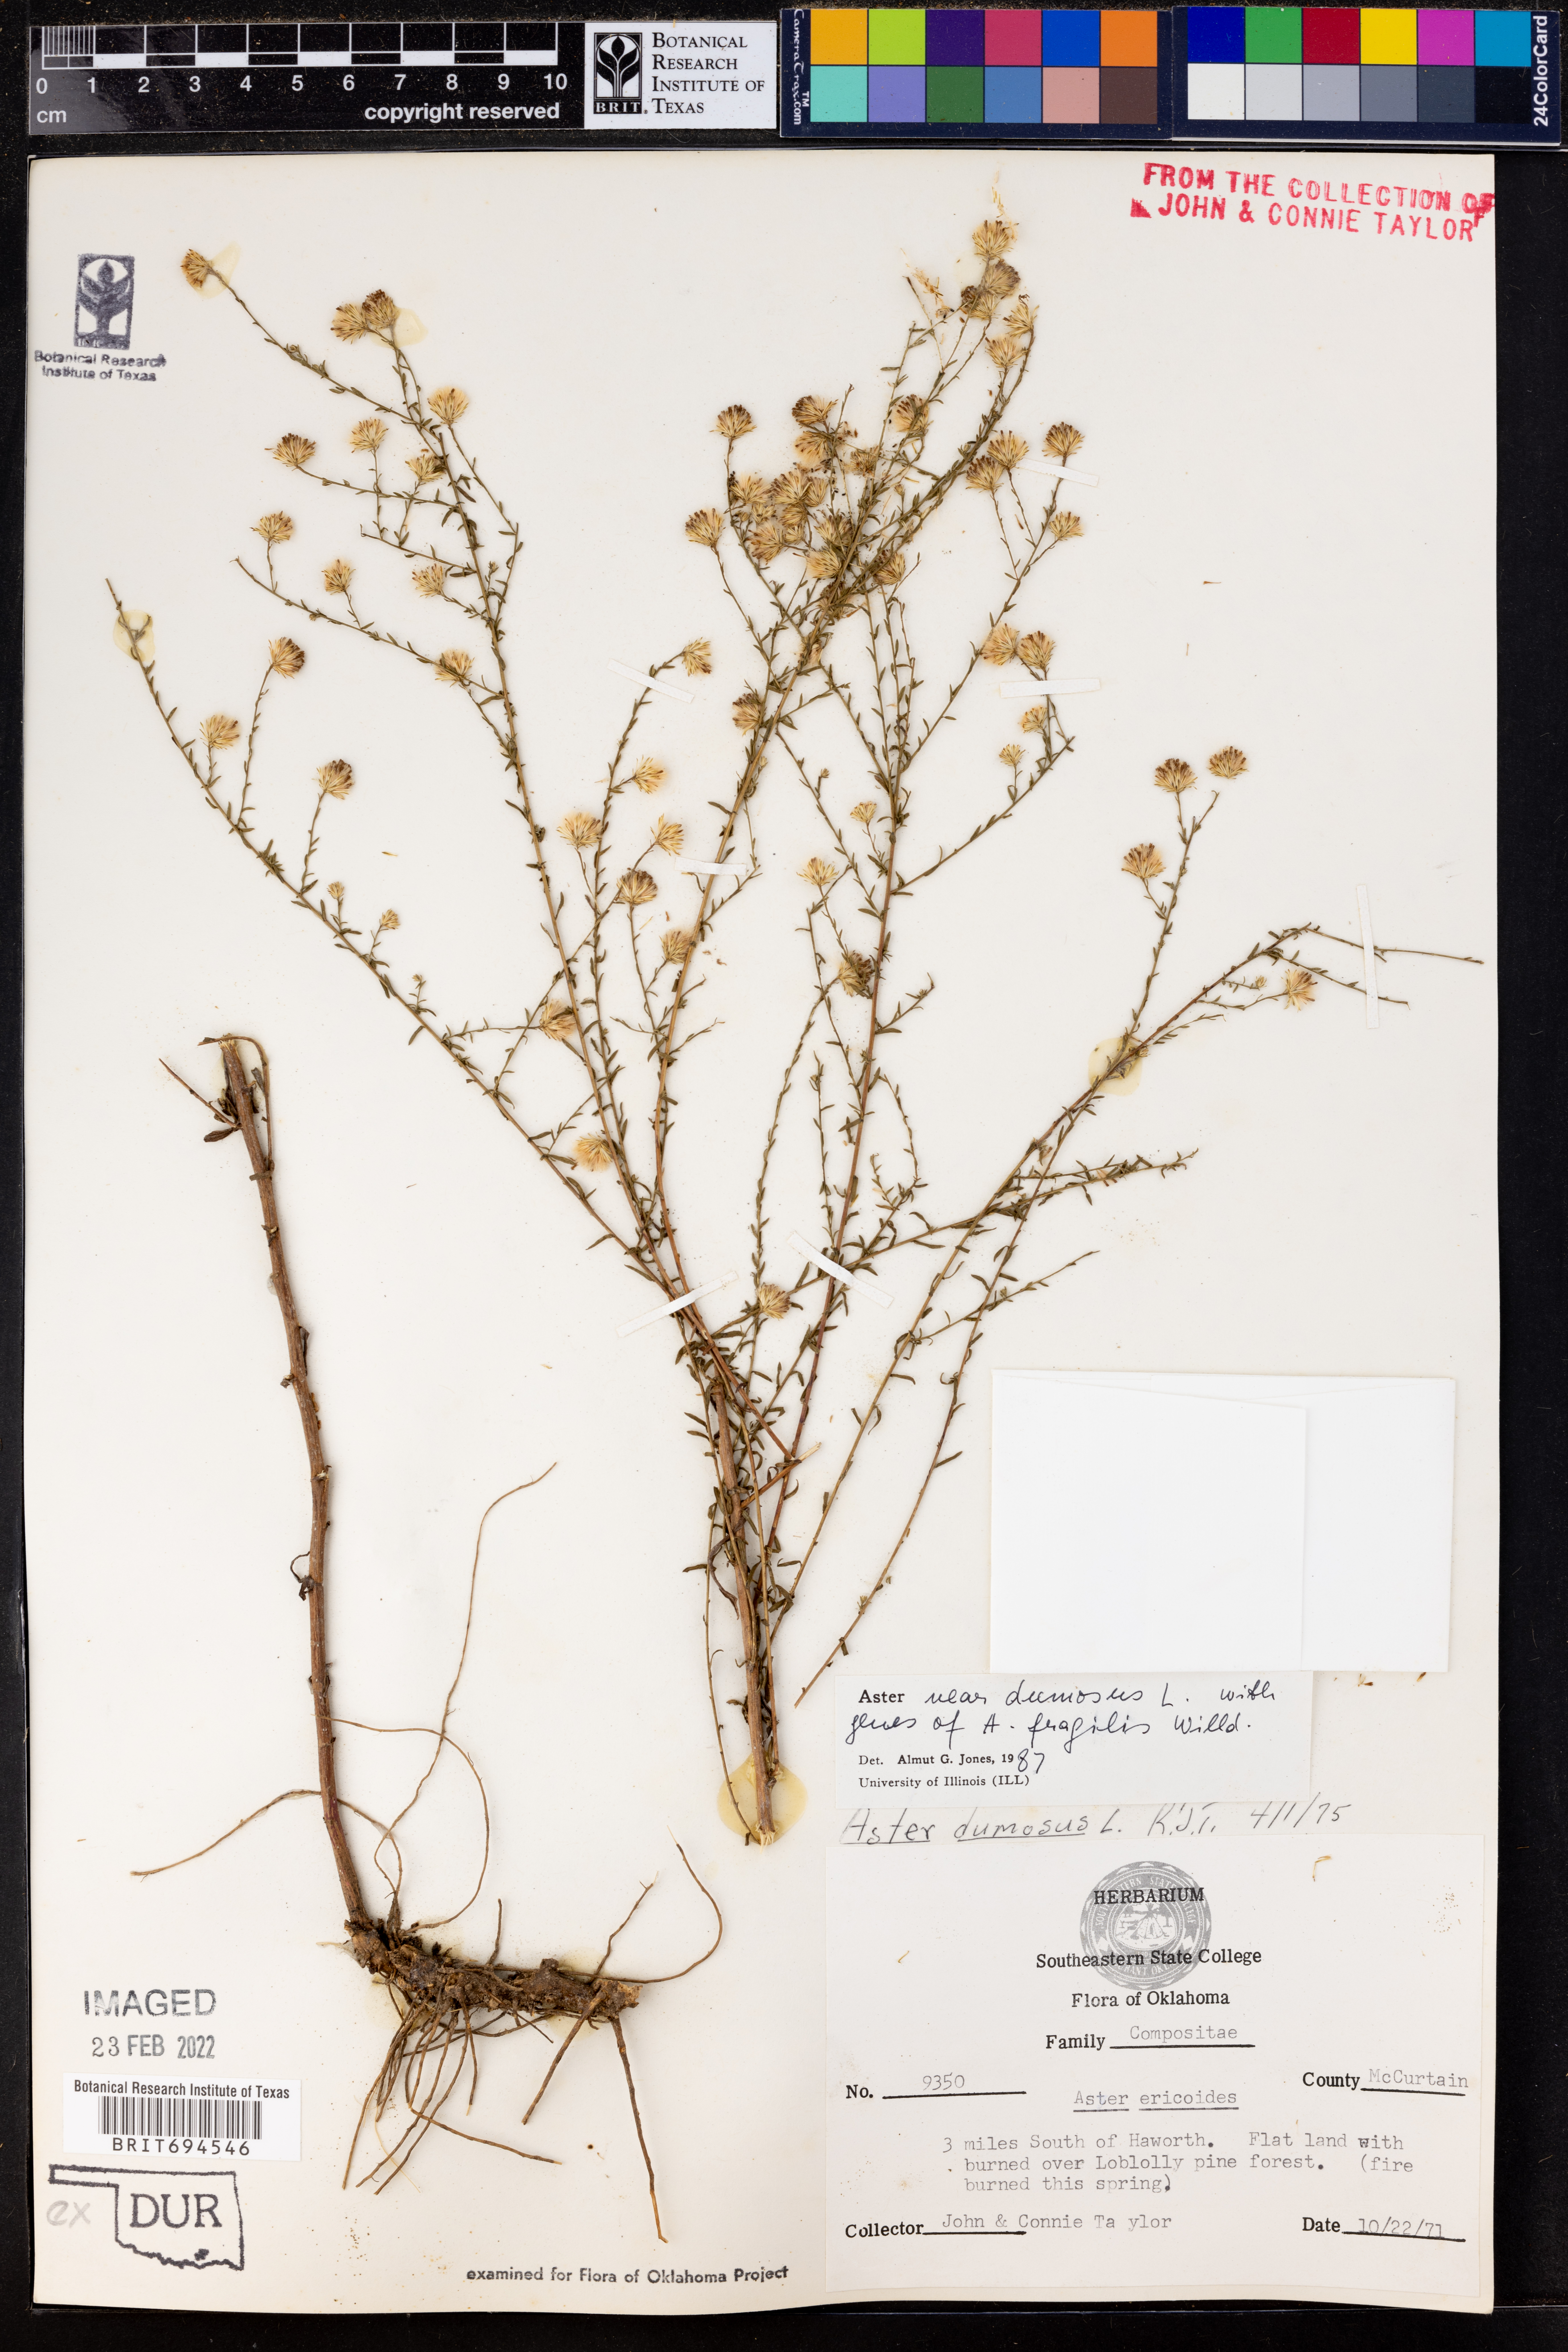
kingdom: Plantae
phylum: Tracheophyta
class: Magnoliopsida
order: Asterales
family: Asteraceae
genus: Symphyotrichum
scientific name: Symphyotrichum dumosum
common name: Bushy aster
